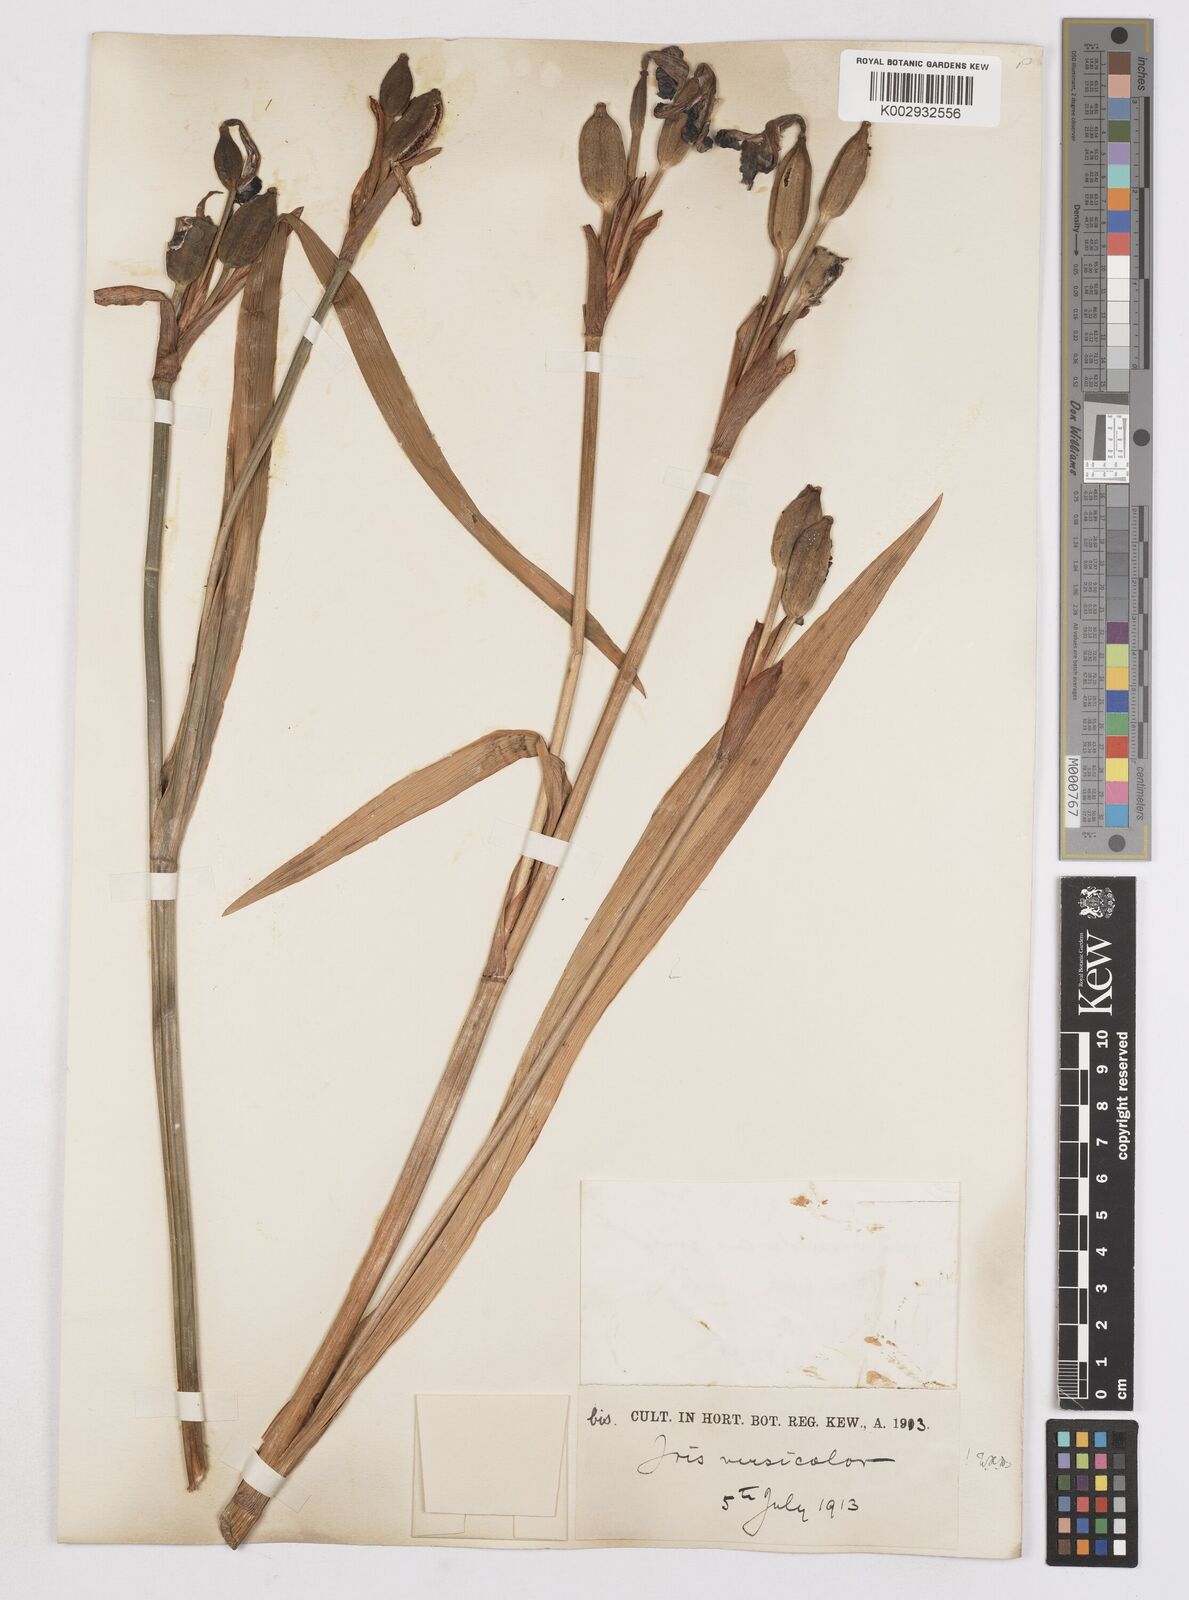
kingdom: Plantae
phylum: Tracheophyta
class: Liliopsida
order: Asparagales
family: Iridaceae
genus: Iris
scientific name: Iris versicolor
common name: Purple iris
